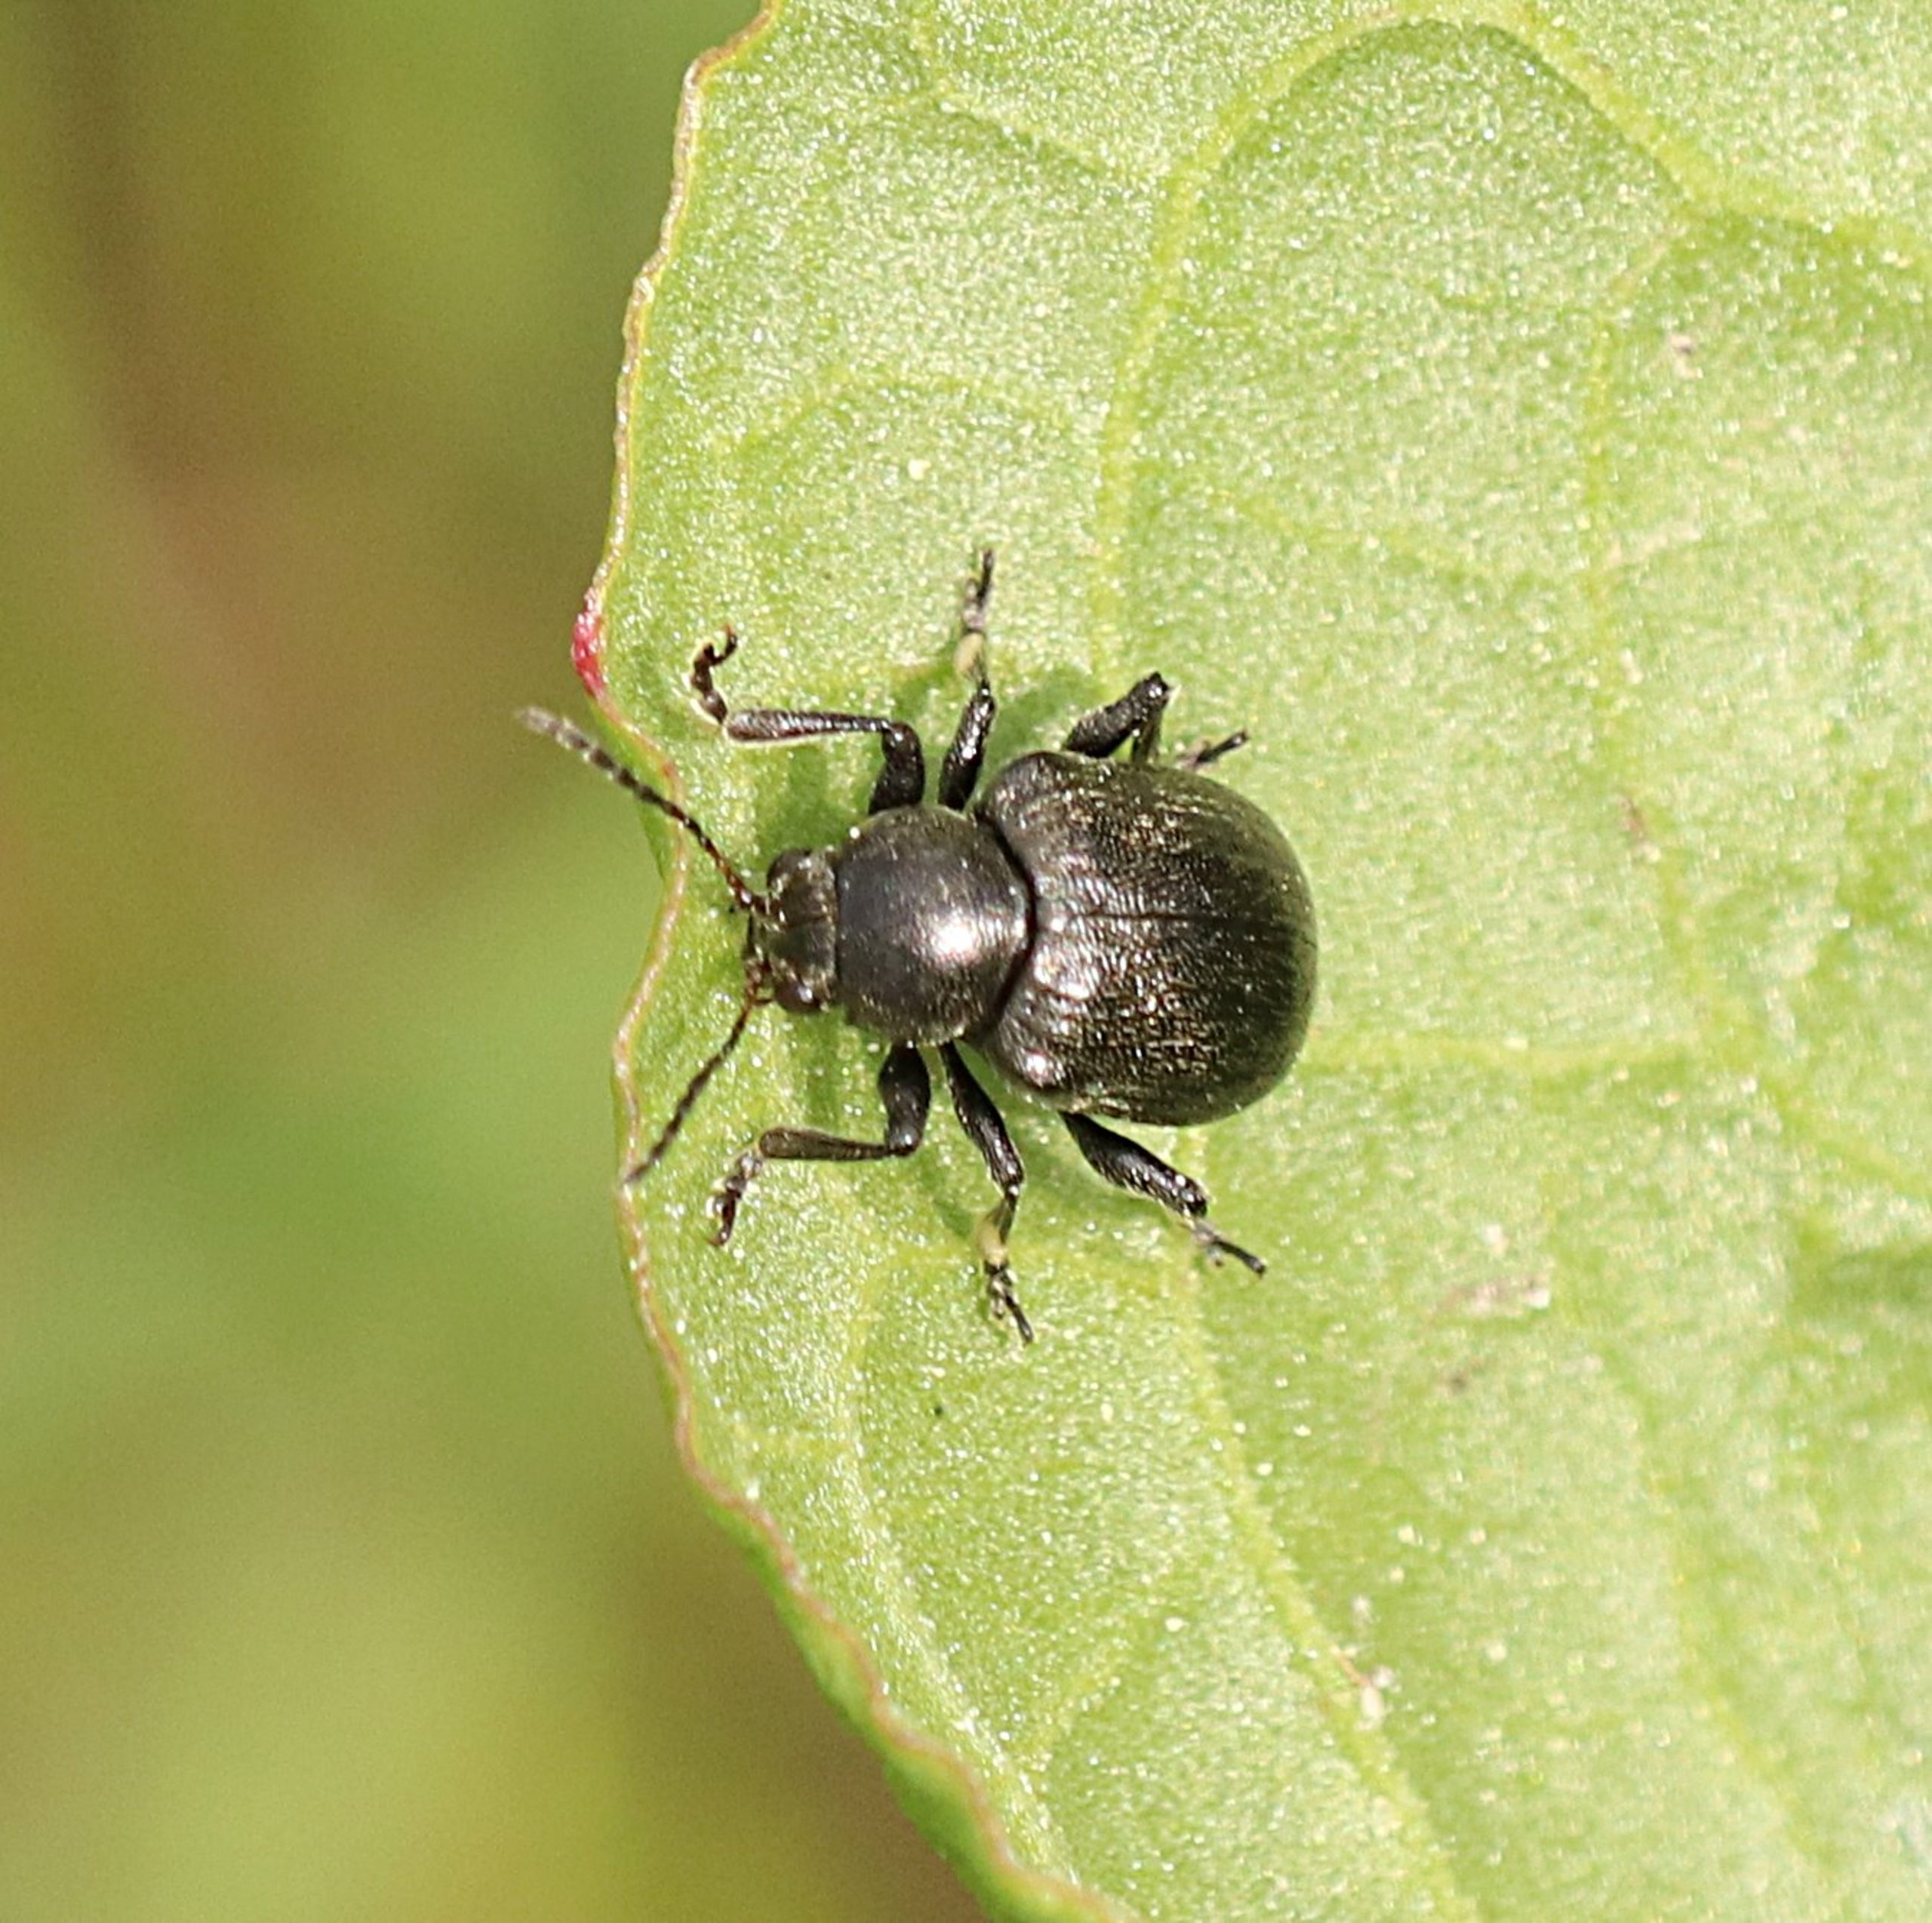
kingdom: Animalia
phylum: Arthropoda
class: Insecta
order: Coleoptera
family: Chrysomelidae
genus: Bromius
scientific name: Bromius obscurus
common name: Gederamsbille
